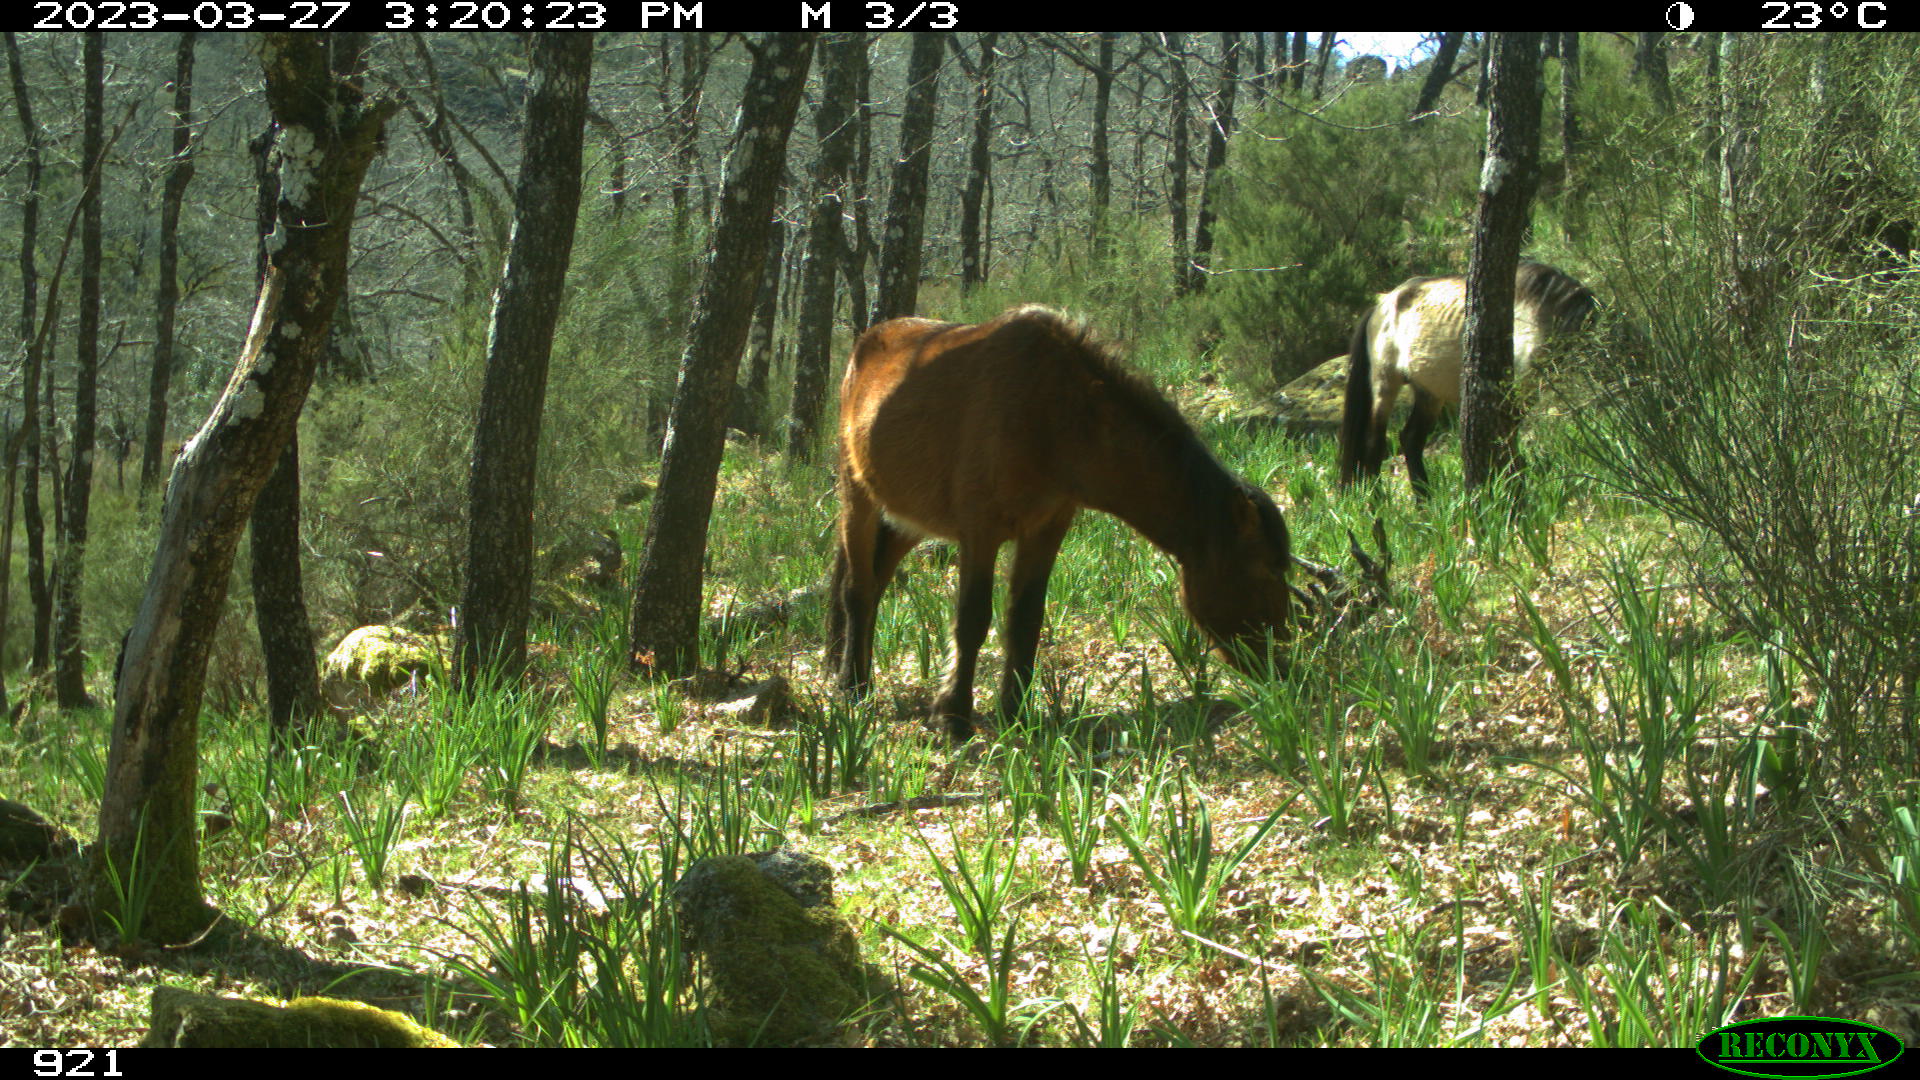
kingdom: Animalia
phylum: Chordata
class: Mammalia
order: Perissodactyla
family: Equidae
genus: Equus
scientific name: Equus caballus
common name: Horse
